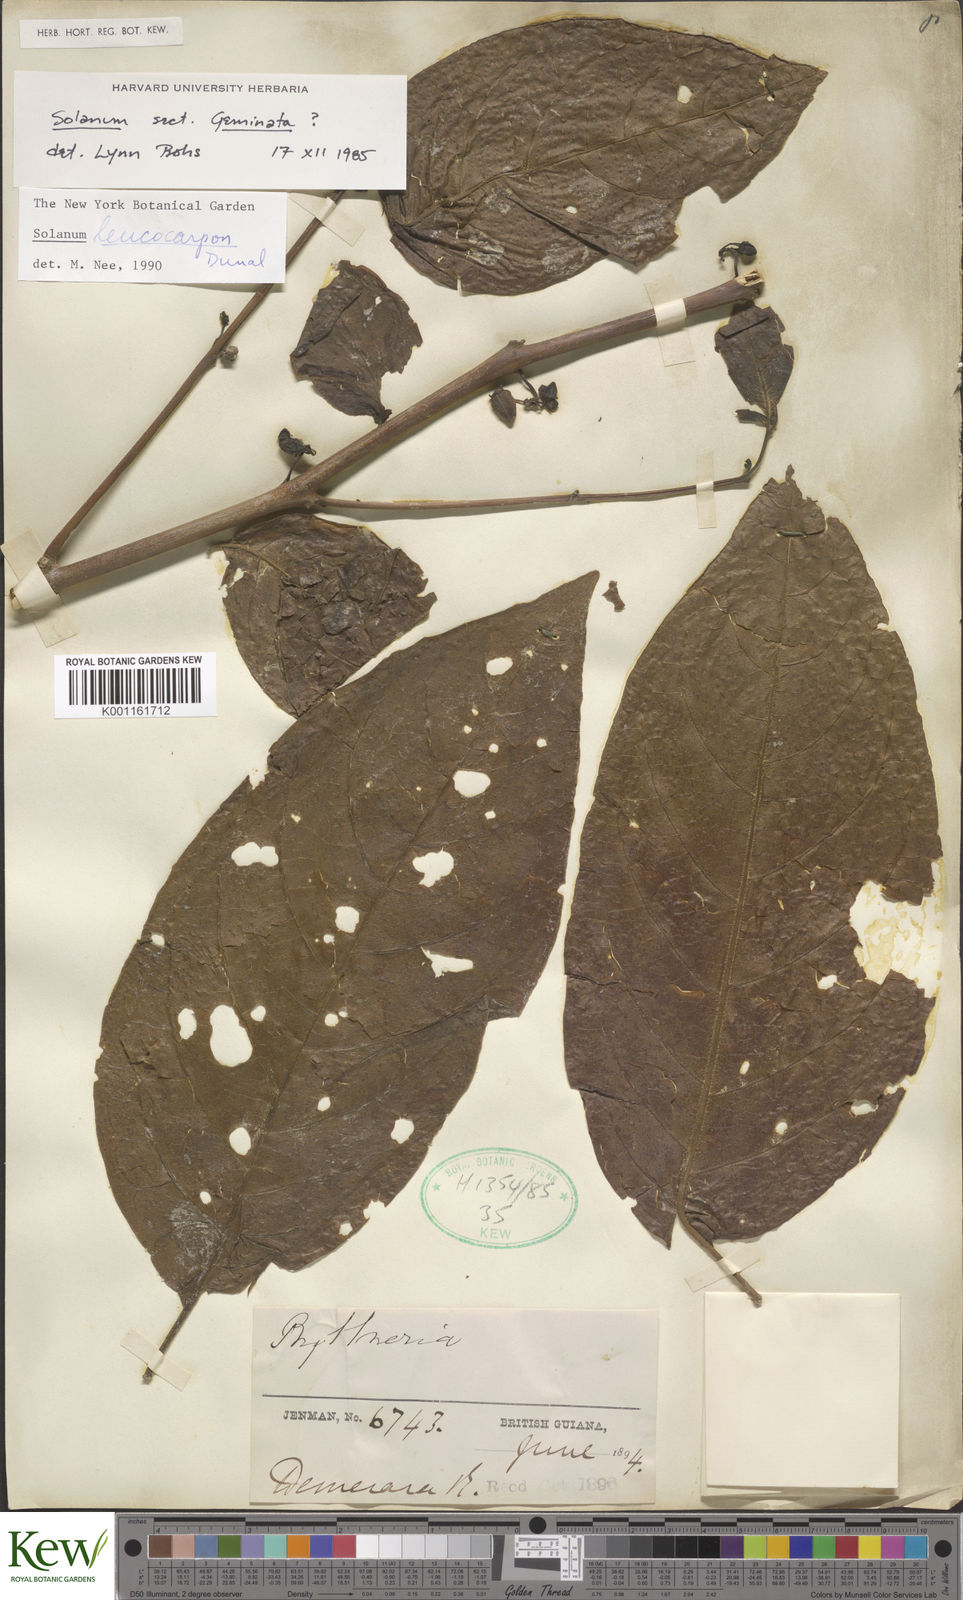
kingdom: Plantae
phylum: Tracheophyta
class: Magnoliopsida
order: Solanales
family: Solanaceae
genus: Solanum
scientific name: Solanum leucocarpon
